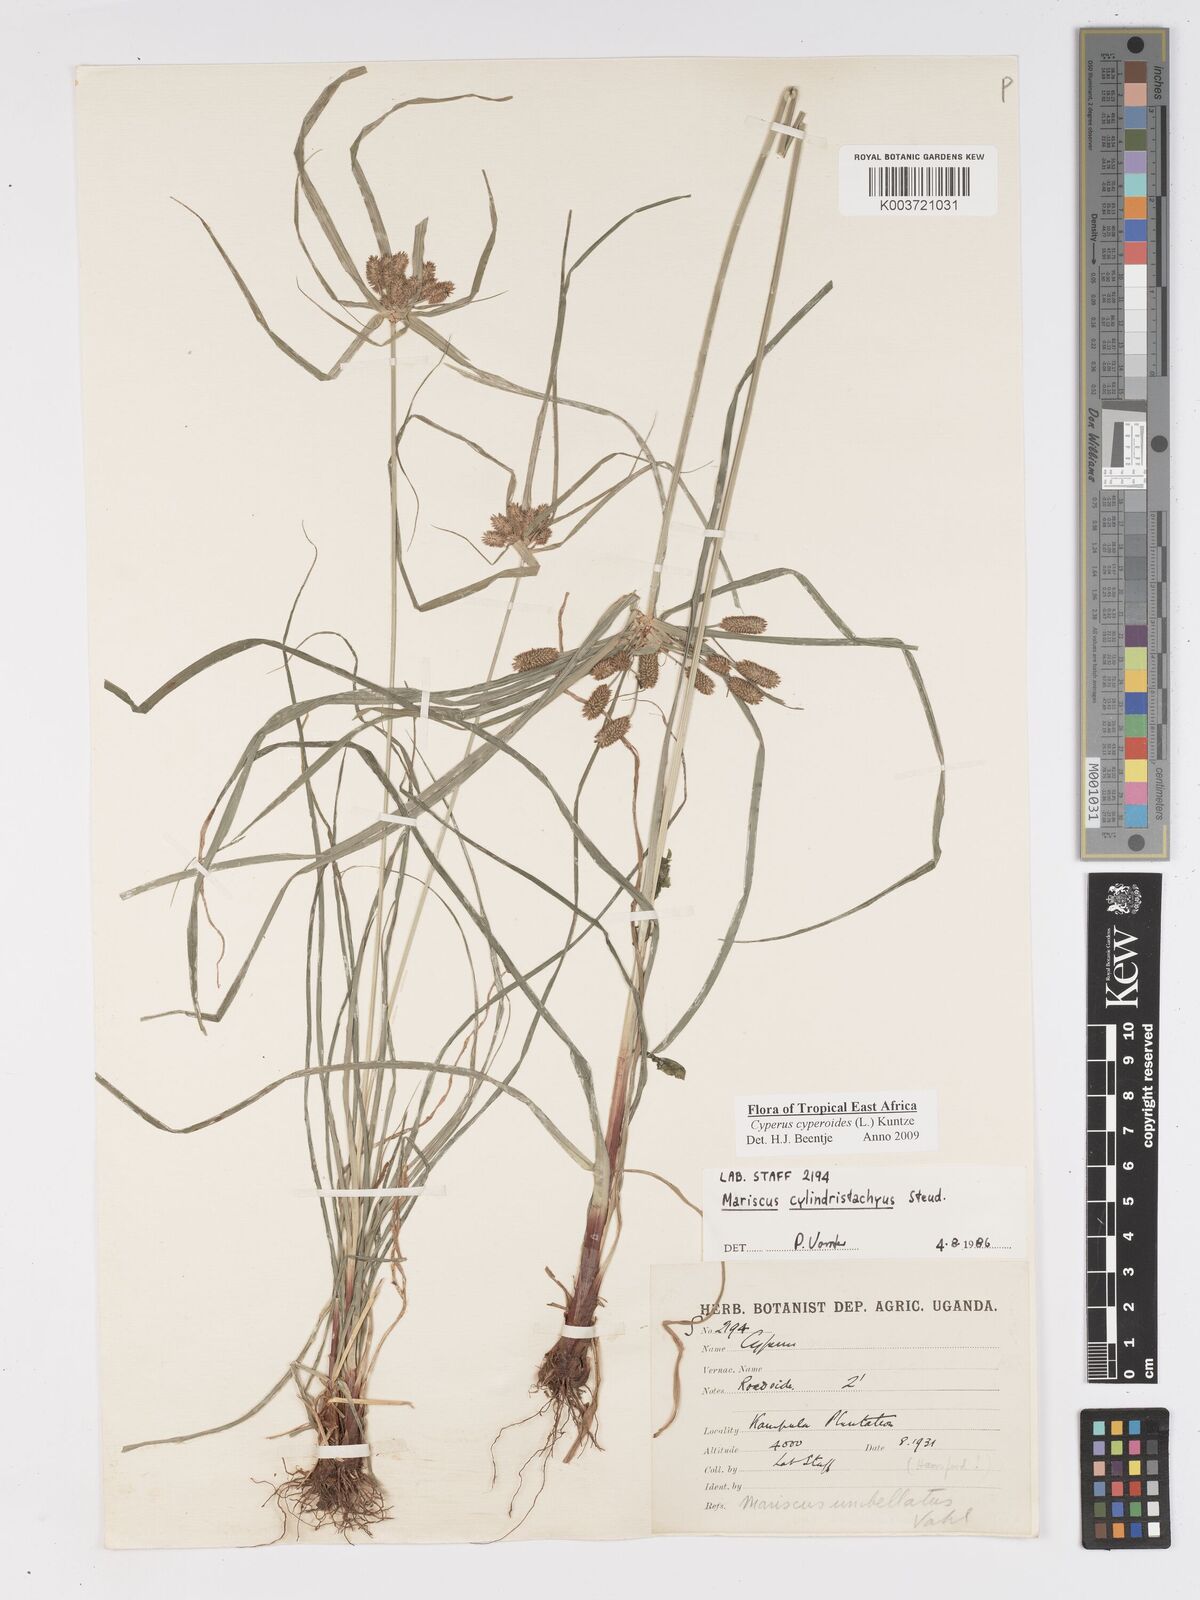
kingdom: Plantae
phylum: Tracheophyta
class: Liliopsida
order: Poales
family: Cyperaceae
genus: Cyperus
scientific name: Cyperus cyperoides
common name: Pacific island flat sedge
